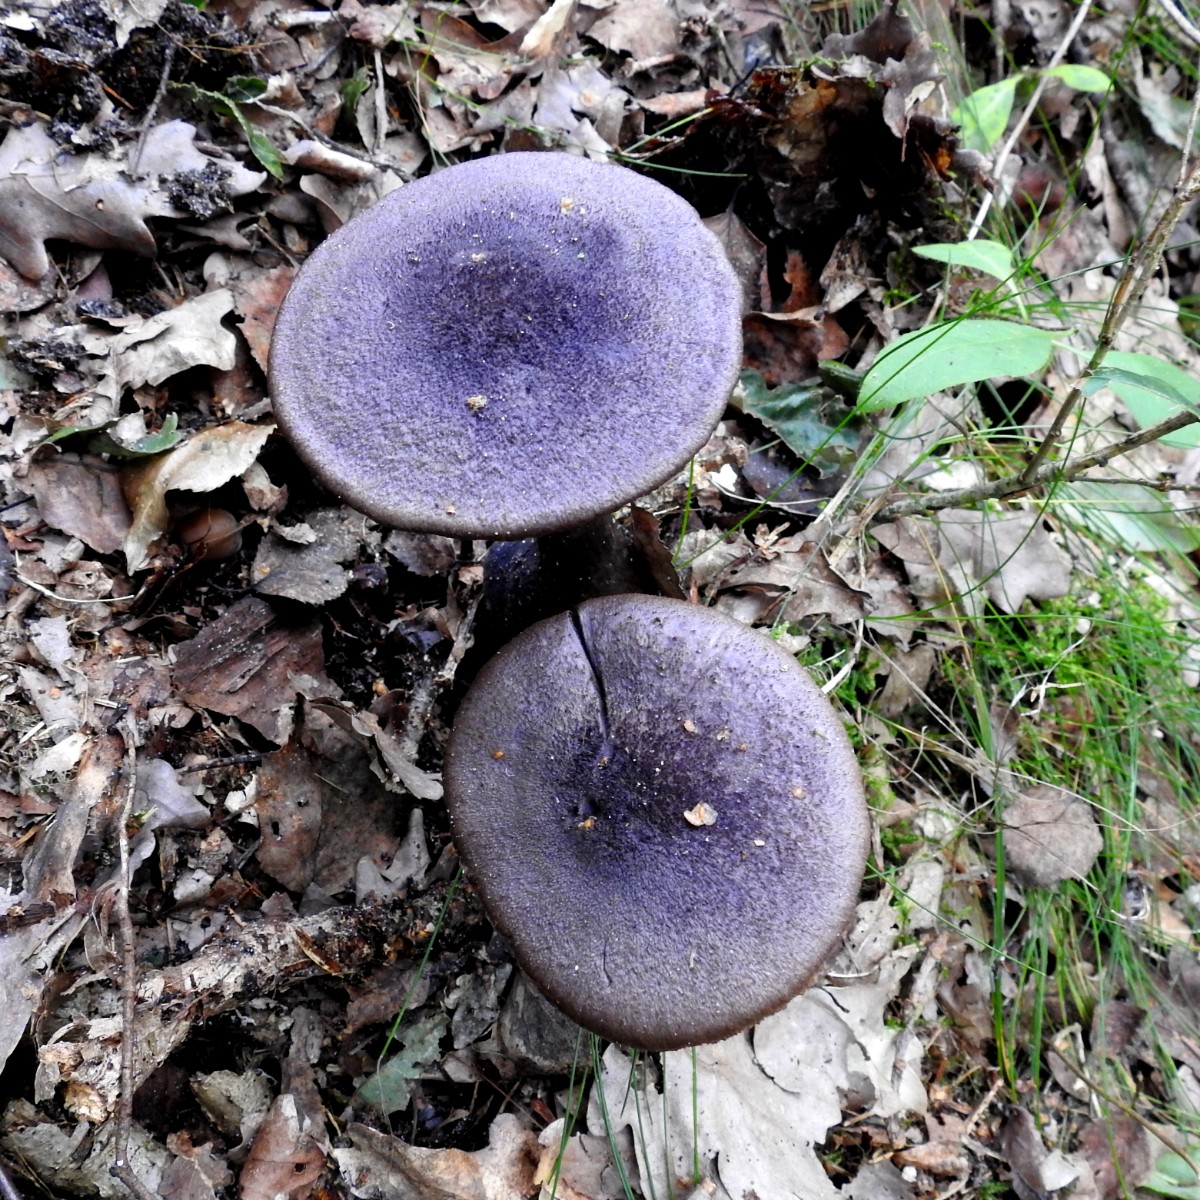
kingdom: Fungi
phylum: Basidiomycota
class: Agaricomycetes
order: Agaricales
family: Cortinariaceae
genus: Cortinarius
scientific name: Cortinarius violaceus
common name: mørkviolet slørhat
